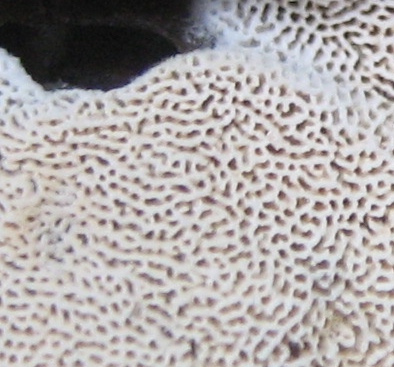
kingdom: Fungi
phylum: Basidiomycota
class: Agaricomycetes
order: Hymenochaetales
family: Schizoporaceae
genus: Xylodon
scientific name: Xylodon subtropicus
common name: labyrint-tandsvamp
